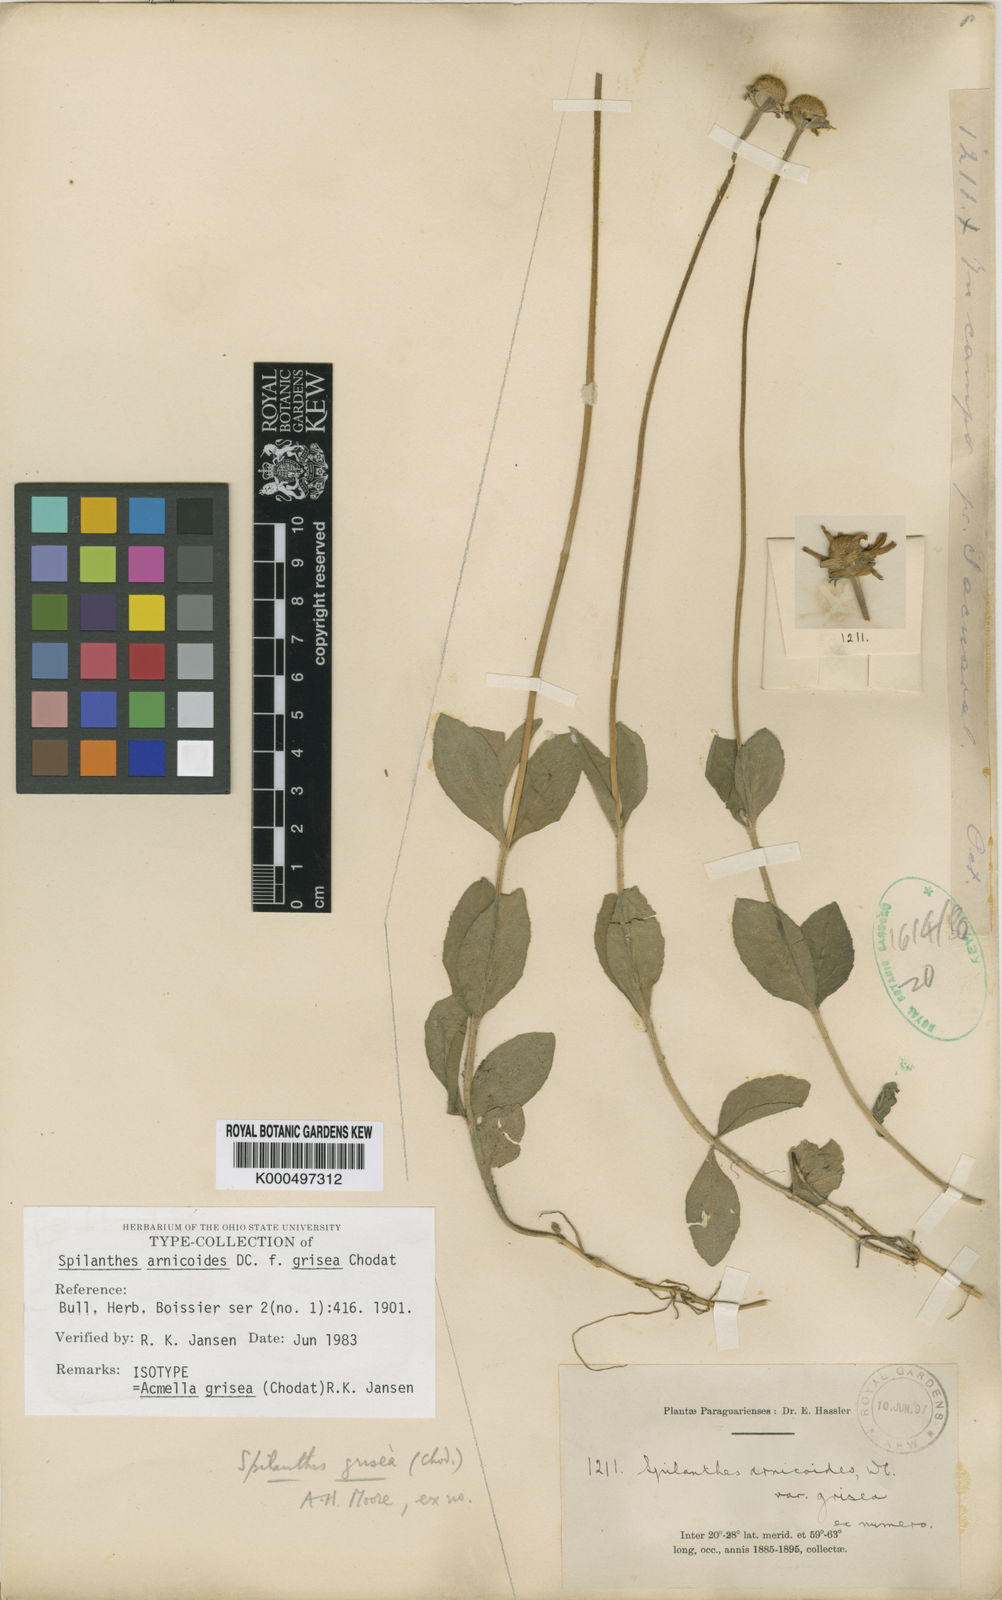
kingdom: Plantae
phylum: Tracheophyta
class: Magnoliopsida
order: Asterales
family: Asteraceae
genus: Acmella
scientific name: Acmella grisea
